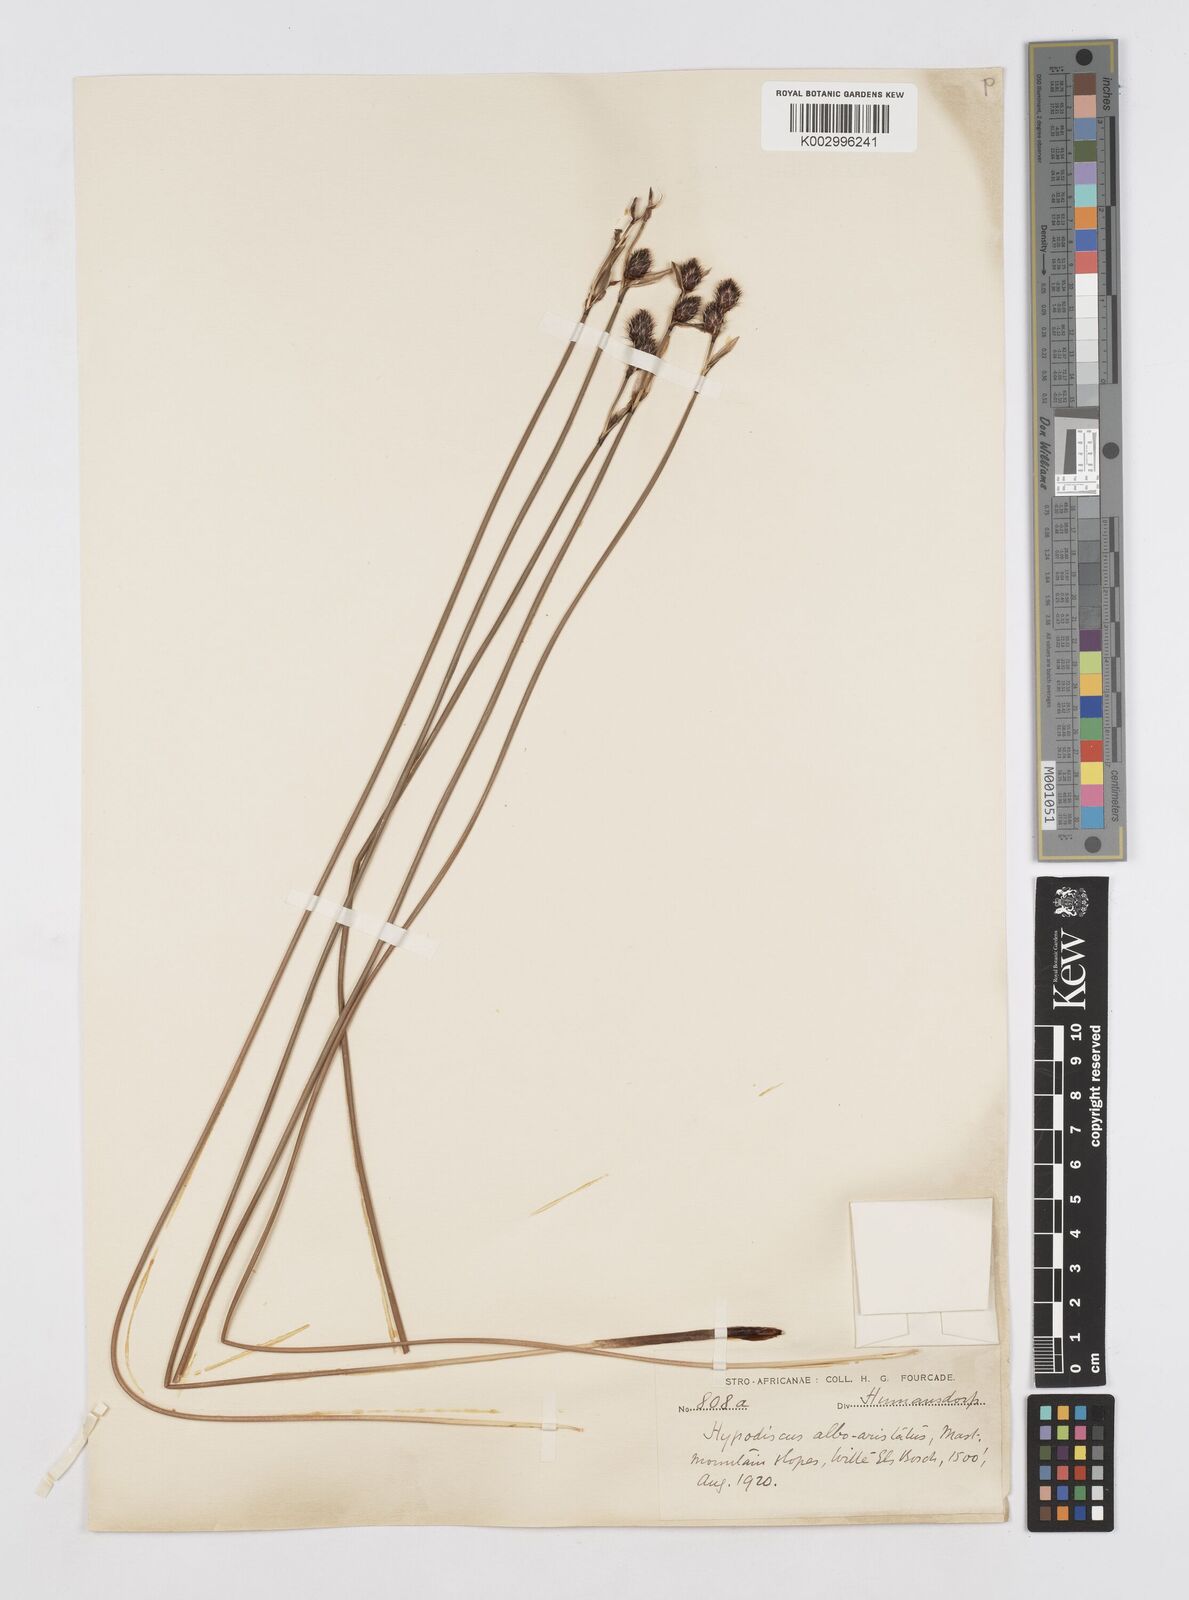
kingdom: Plantae
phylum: Tracheophyta
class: Liliopsida
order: Poales
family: Restionaceae
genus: Hypodiscus
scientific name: Hypodiscus alboaristatus
